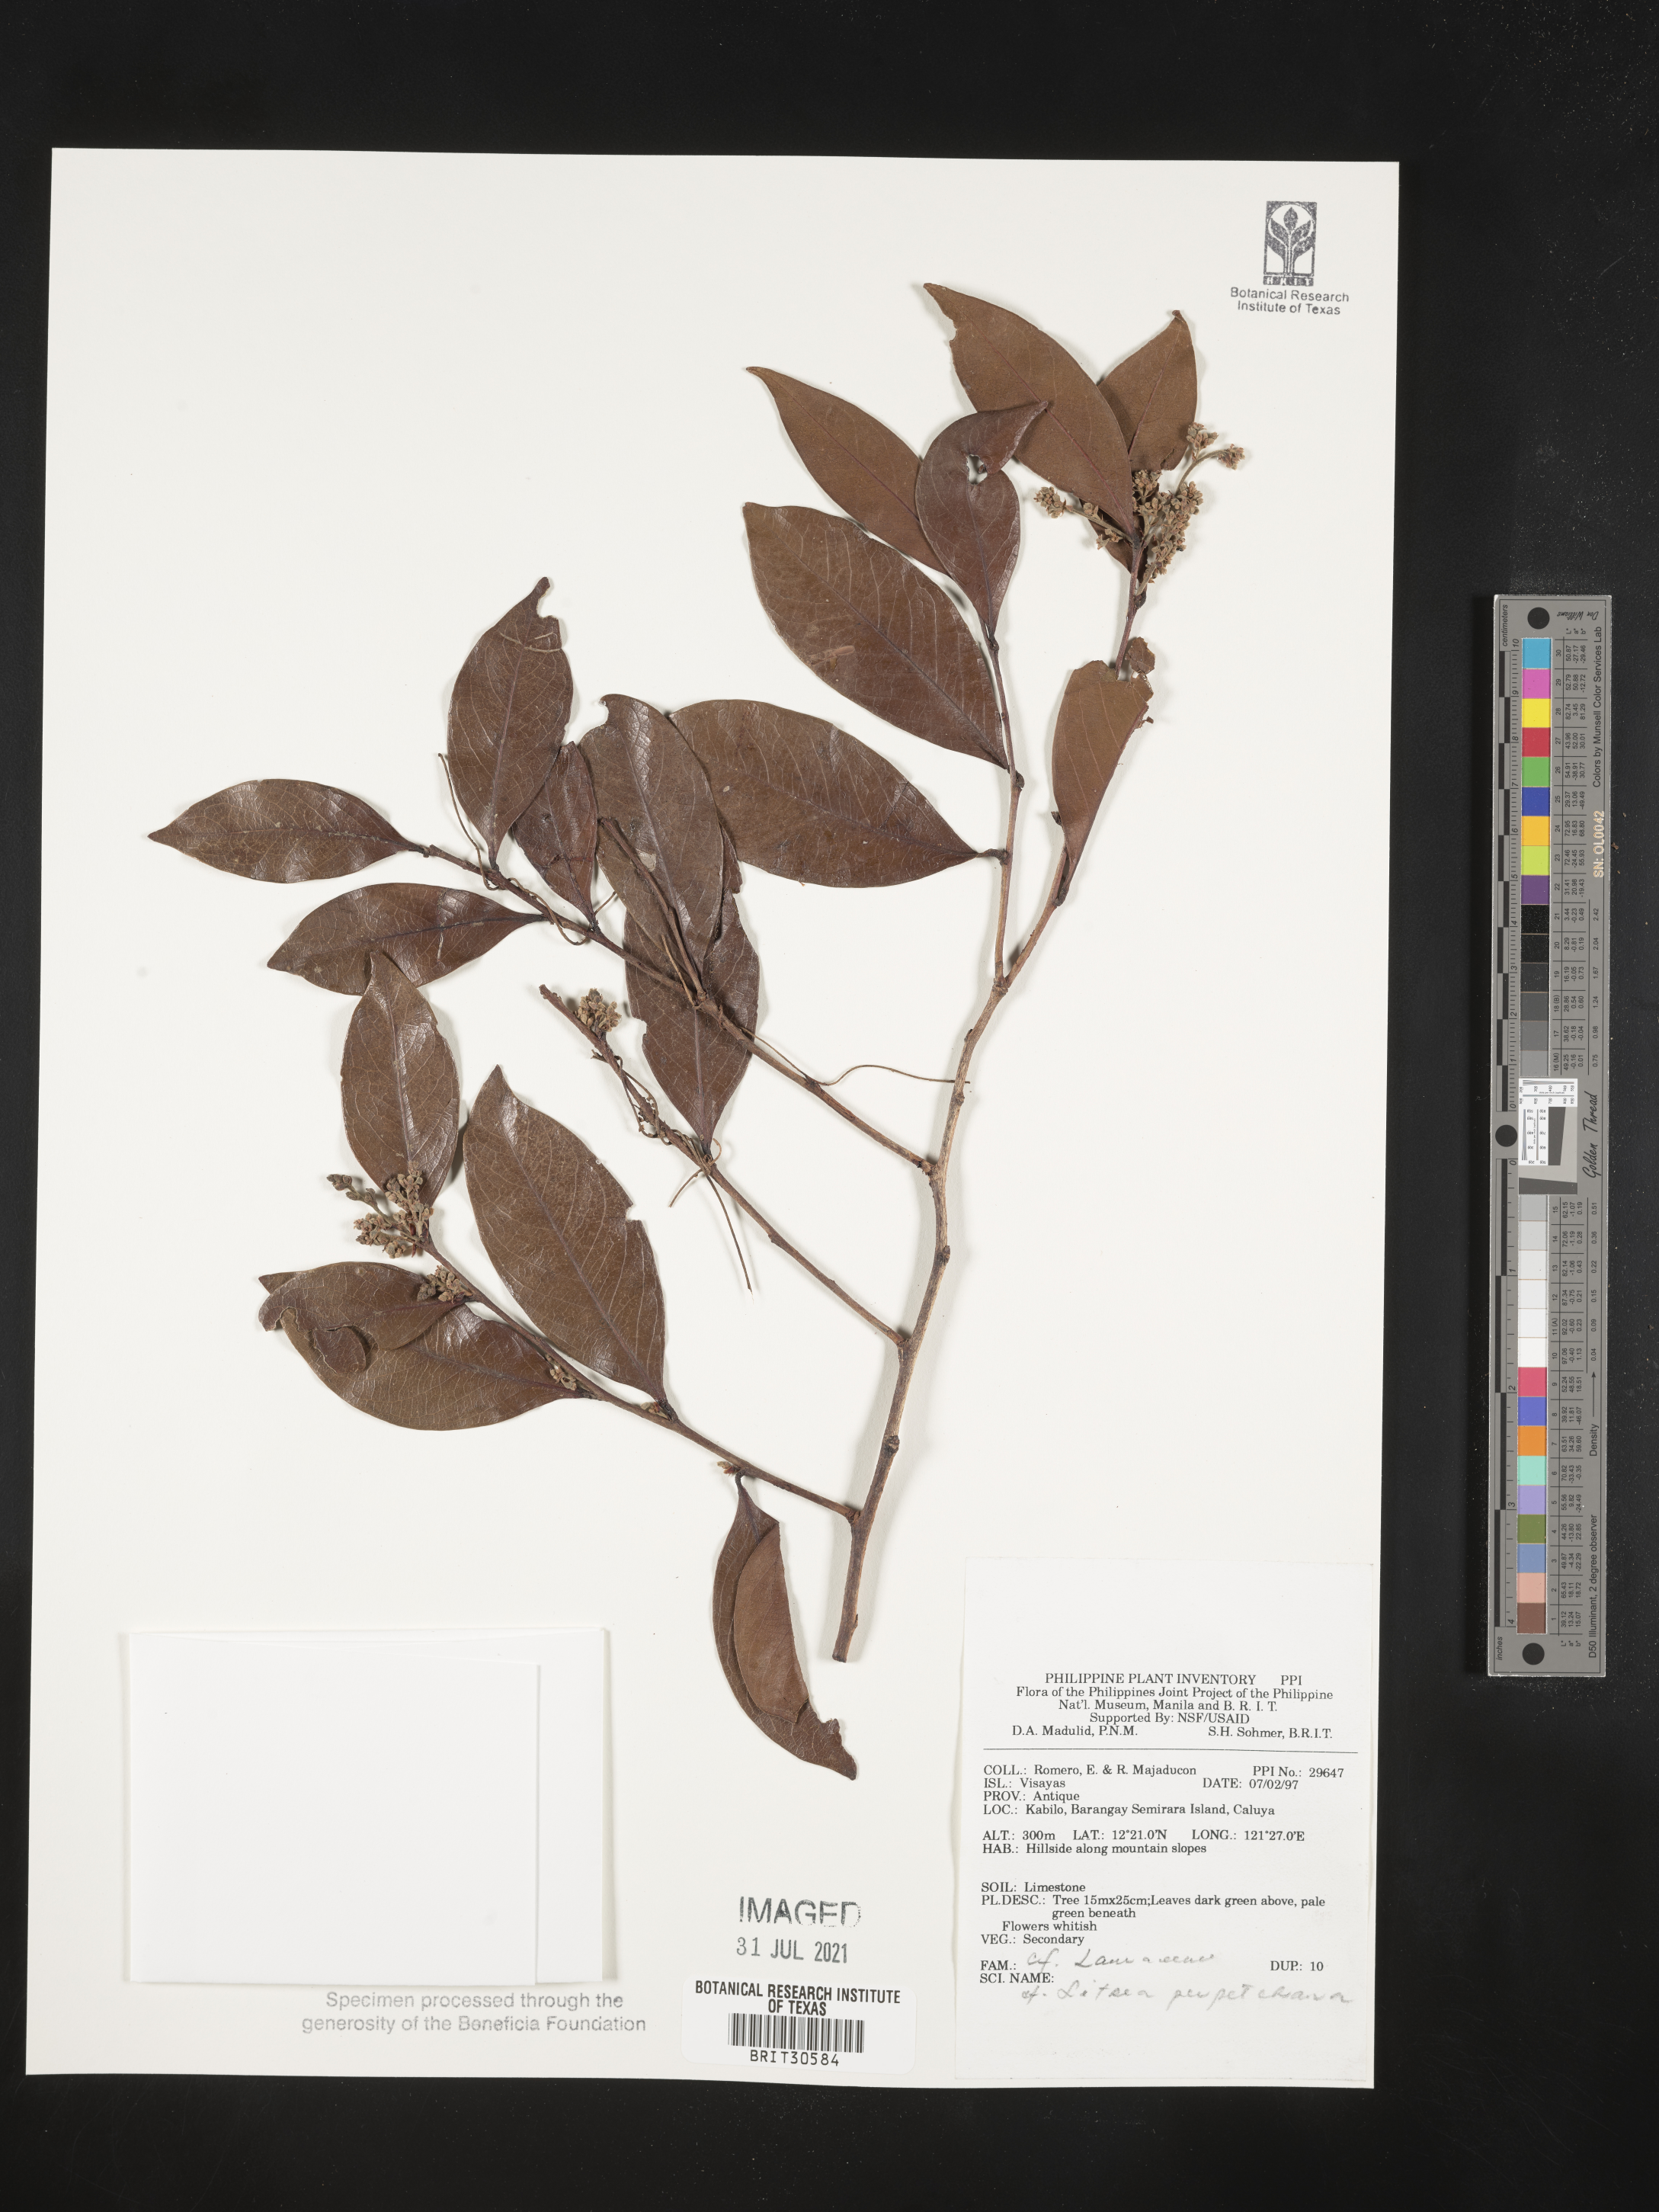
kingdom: Plantae
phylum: Tracheophyta
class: Magnoliopsida
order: Laurales
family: Lauraceae
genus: Litsea
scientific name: Litsea
